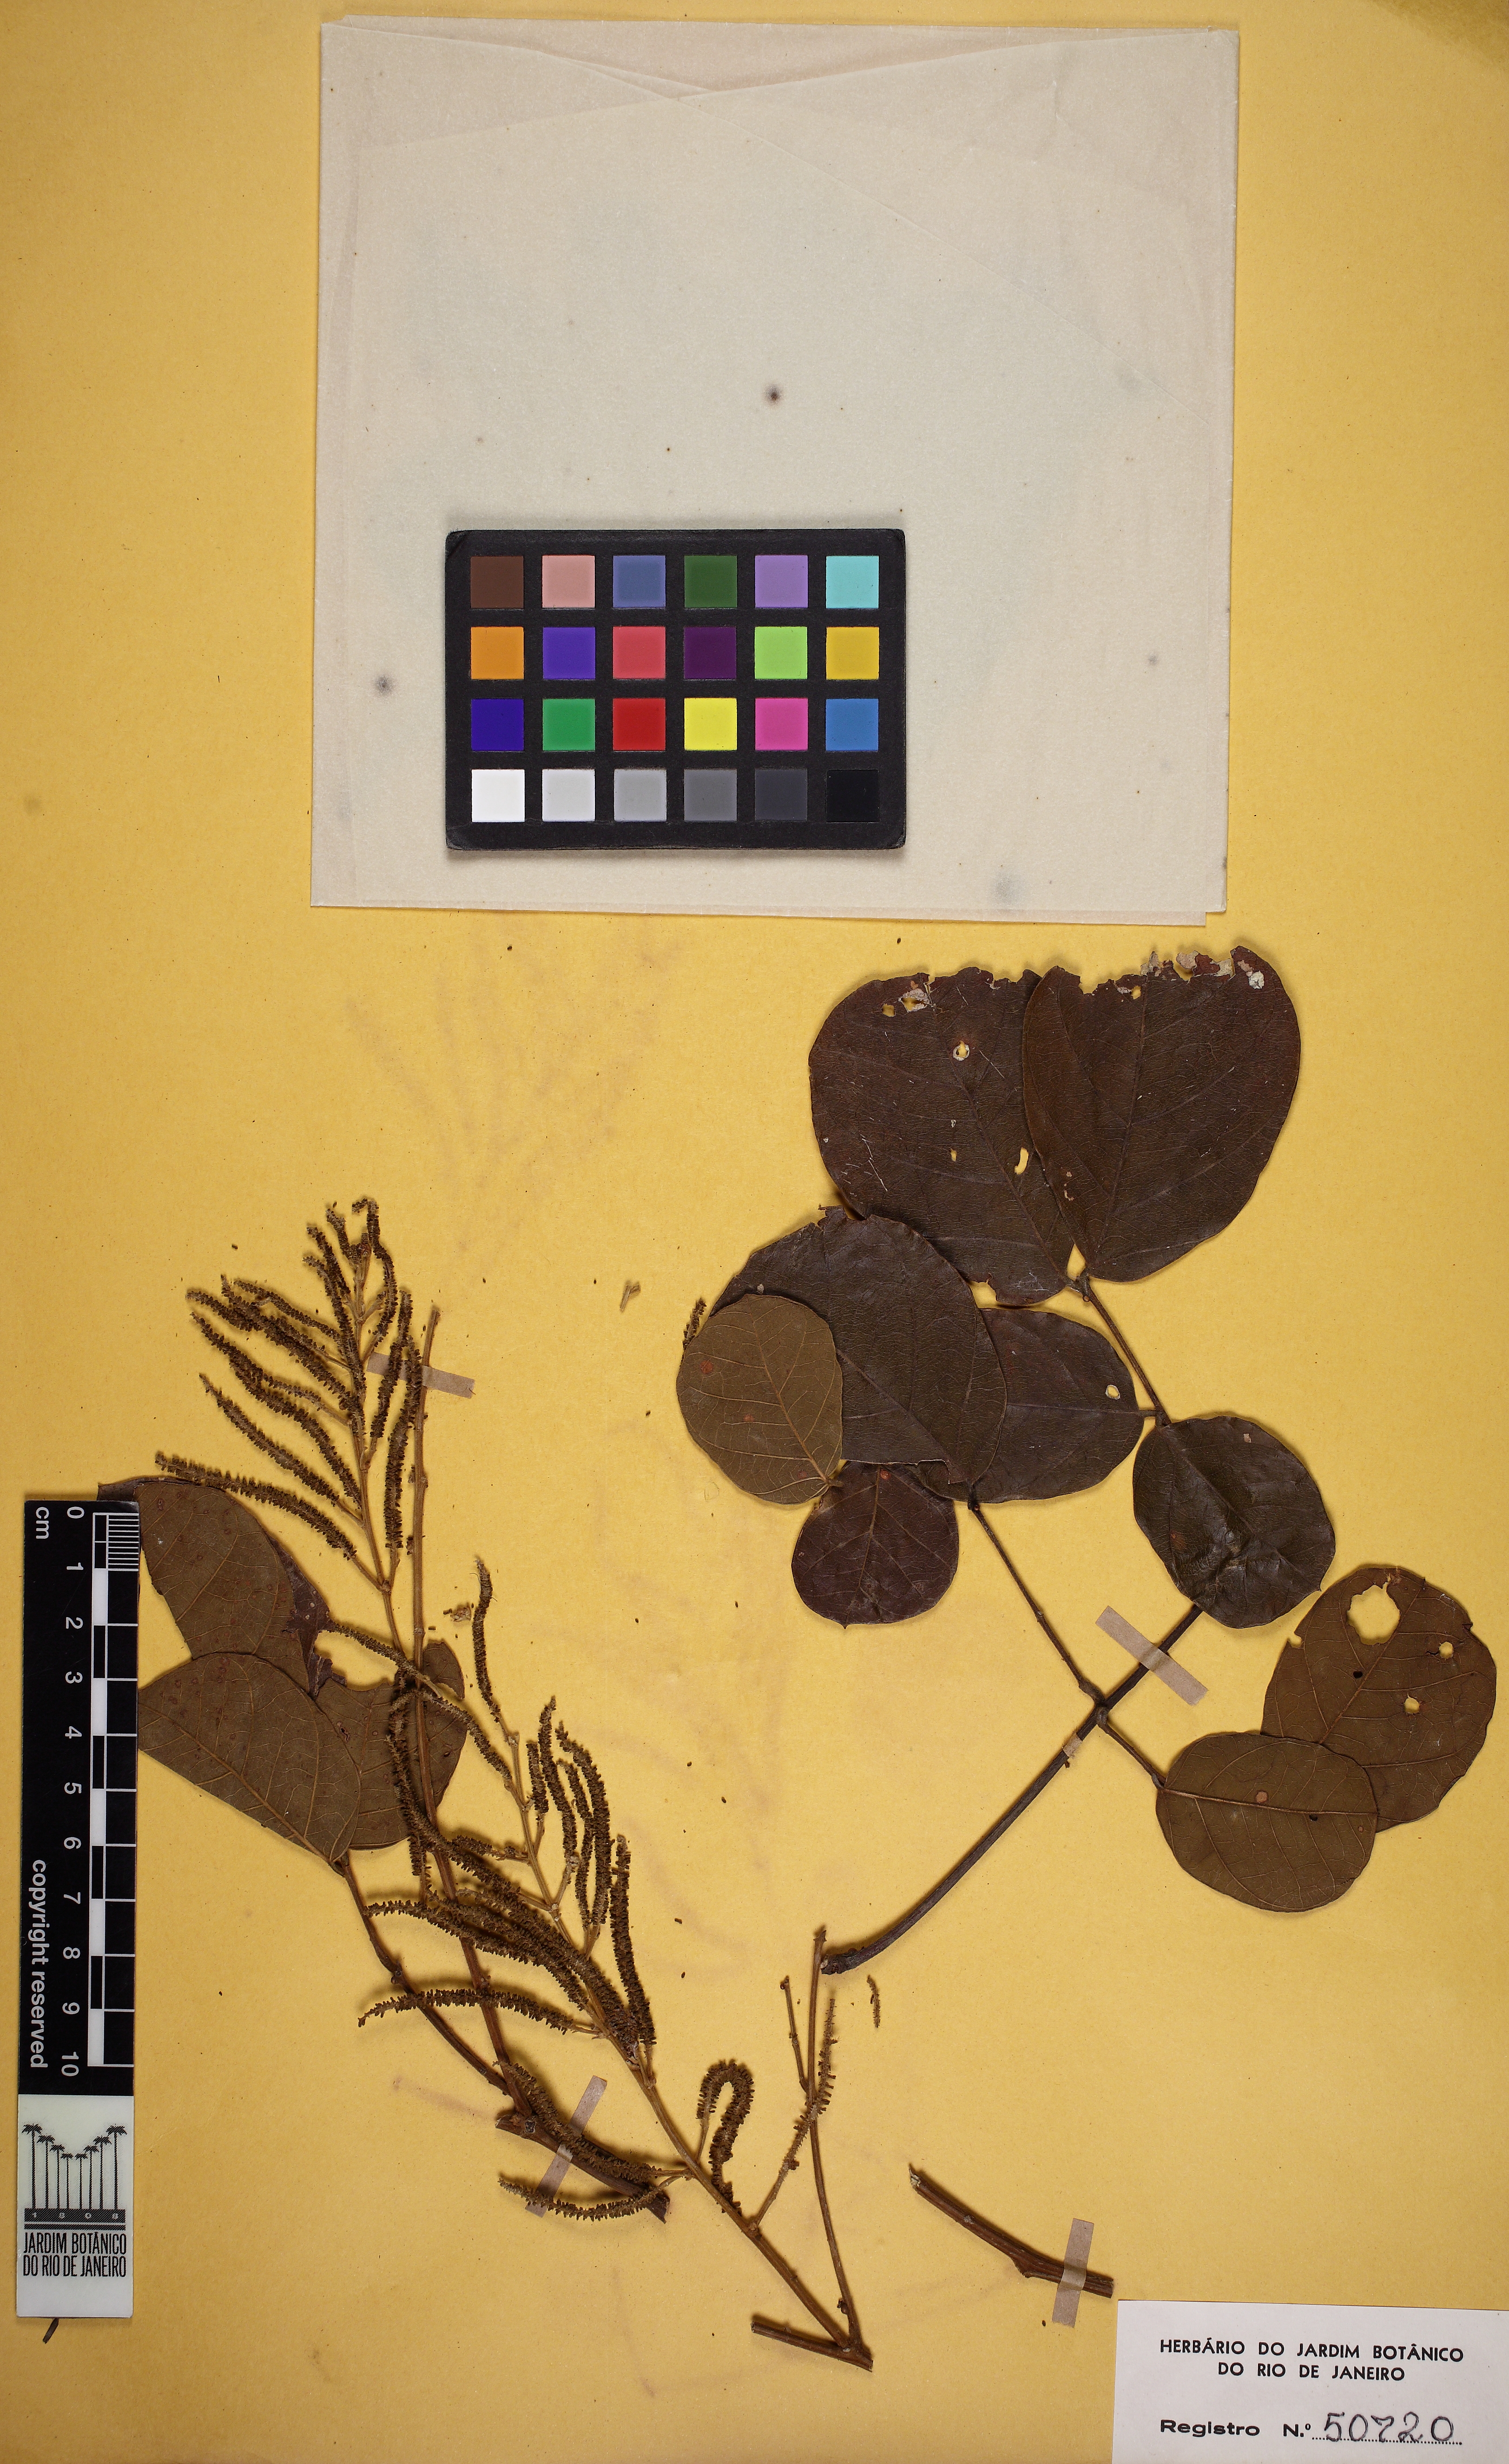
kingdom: Plantae
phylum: Tracheophyta
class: Magnoliopsida
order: Fabales
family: Fabaceae
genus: Piptadenia
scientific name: Piptadenia uaupensis
